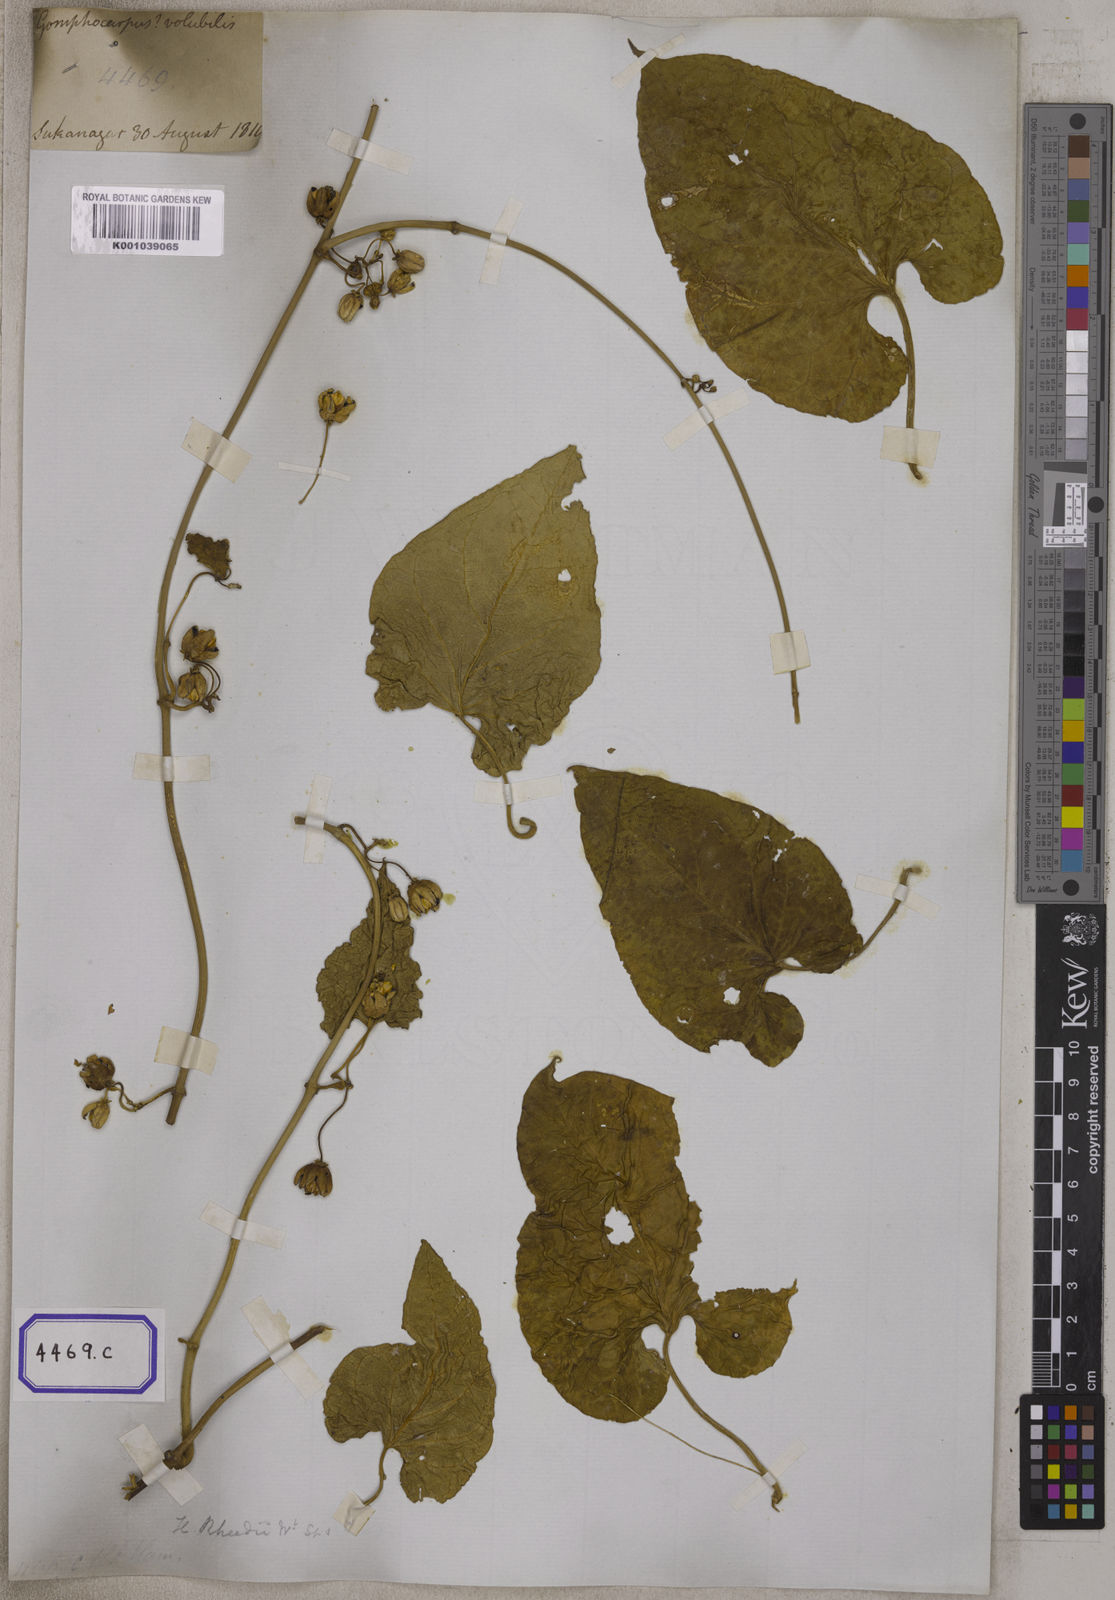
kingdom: Plantae
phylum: Tracheophyta
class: Magnoliopsida
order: Gentianales
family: Apocynaceae
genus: Cynanchum
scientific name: Cynanchum annularium
